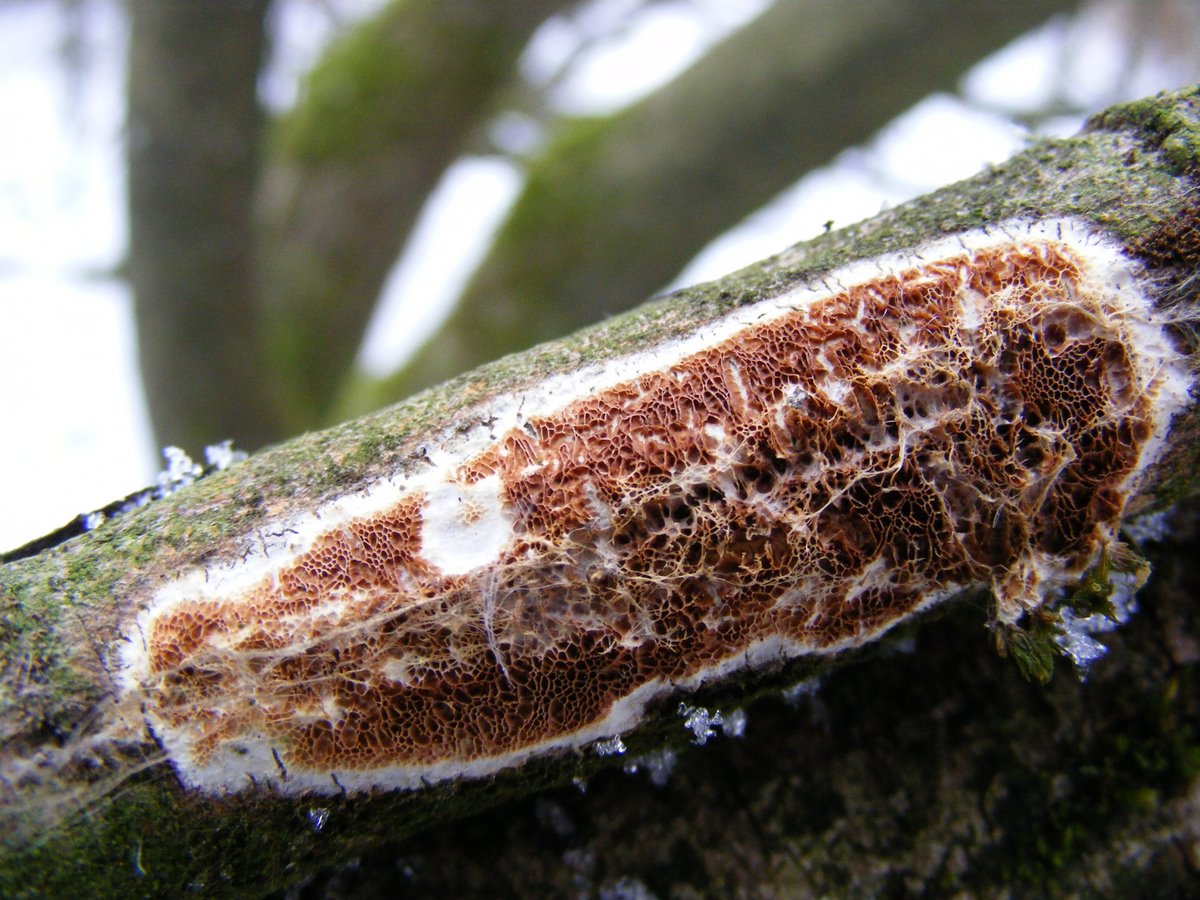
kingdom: Fungi
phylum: Basidiomycota
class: Agaricomycetes
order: Polyporales
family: Irpicaceae
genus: Resiniporus
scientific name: Resiniporus resinascens
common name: trist pastelporesvamp
